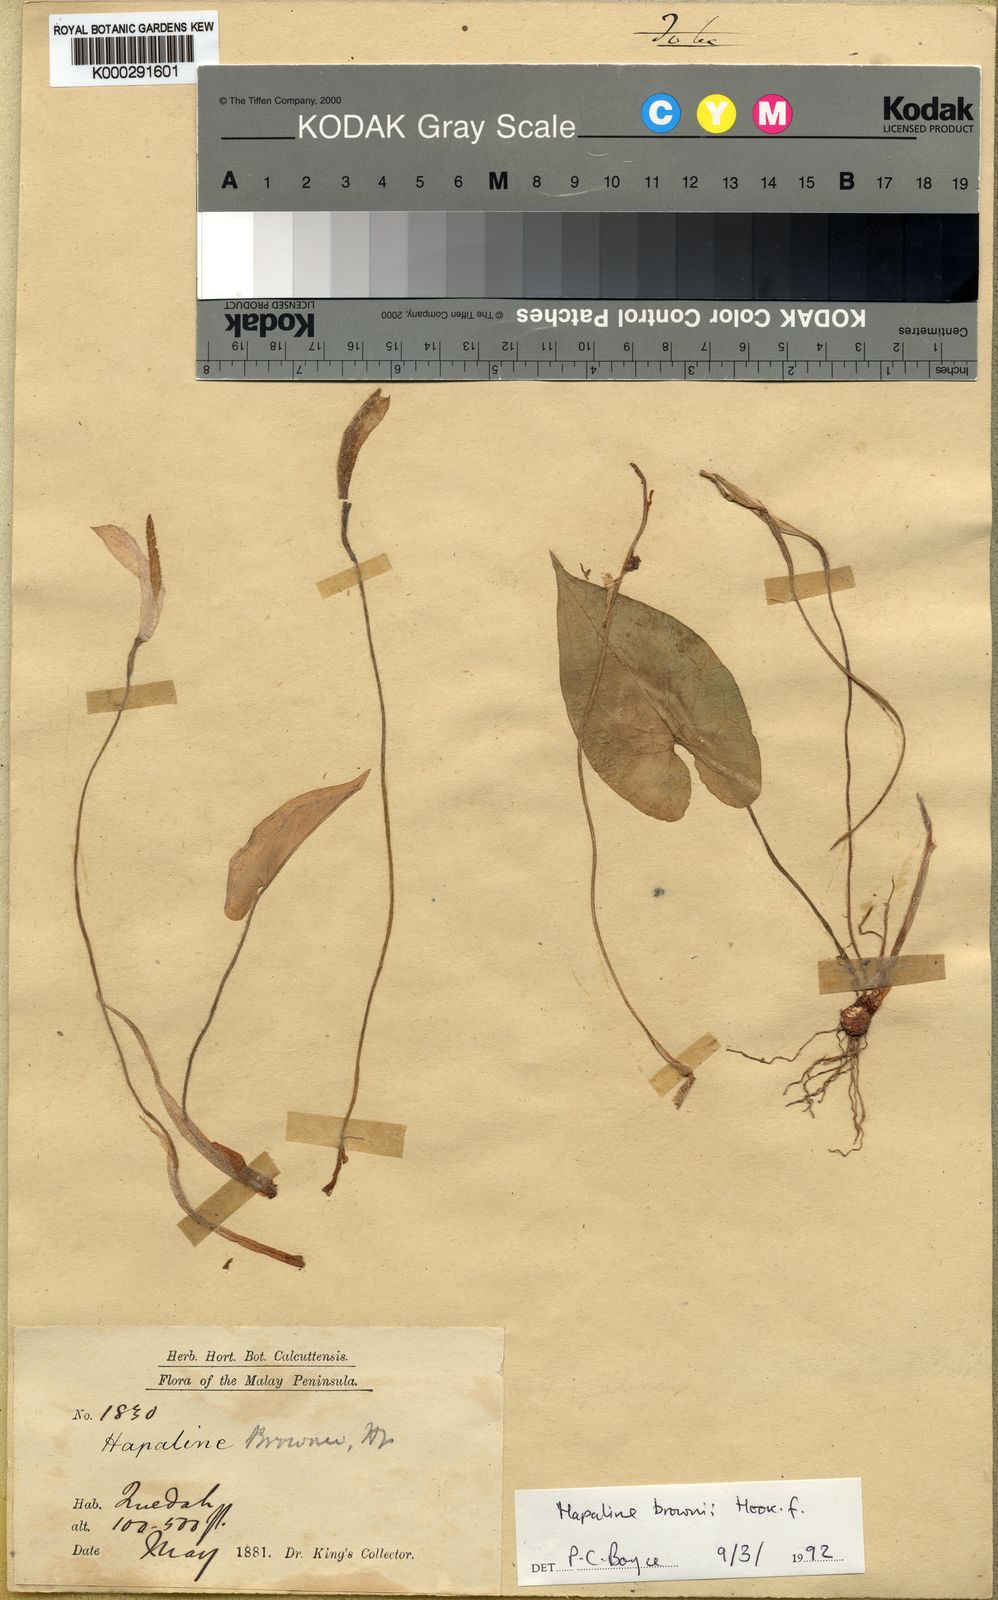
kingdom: Plantae
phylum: Tracheophyta
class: Liliopsida
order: Alismatales
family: Araceae
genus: Hapaline
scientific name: Hapaline brownii
